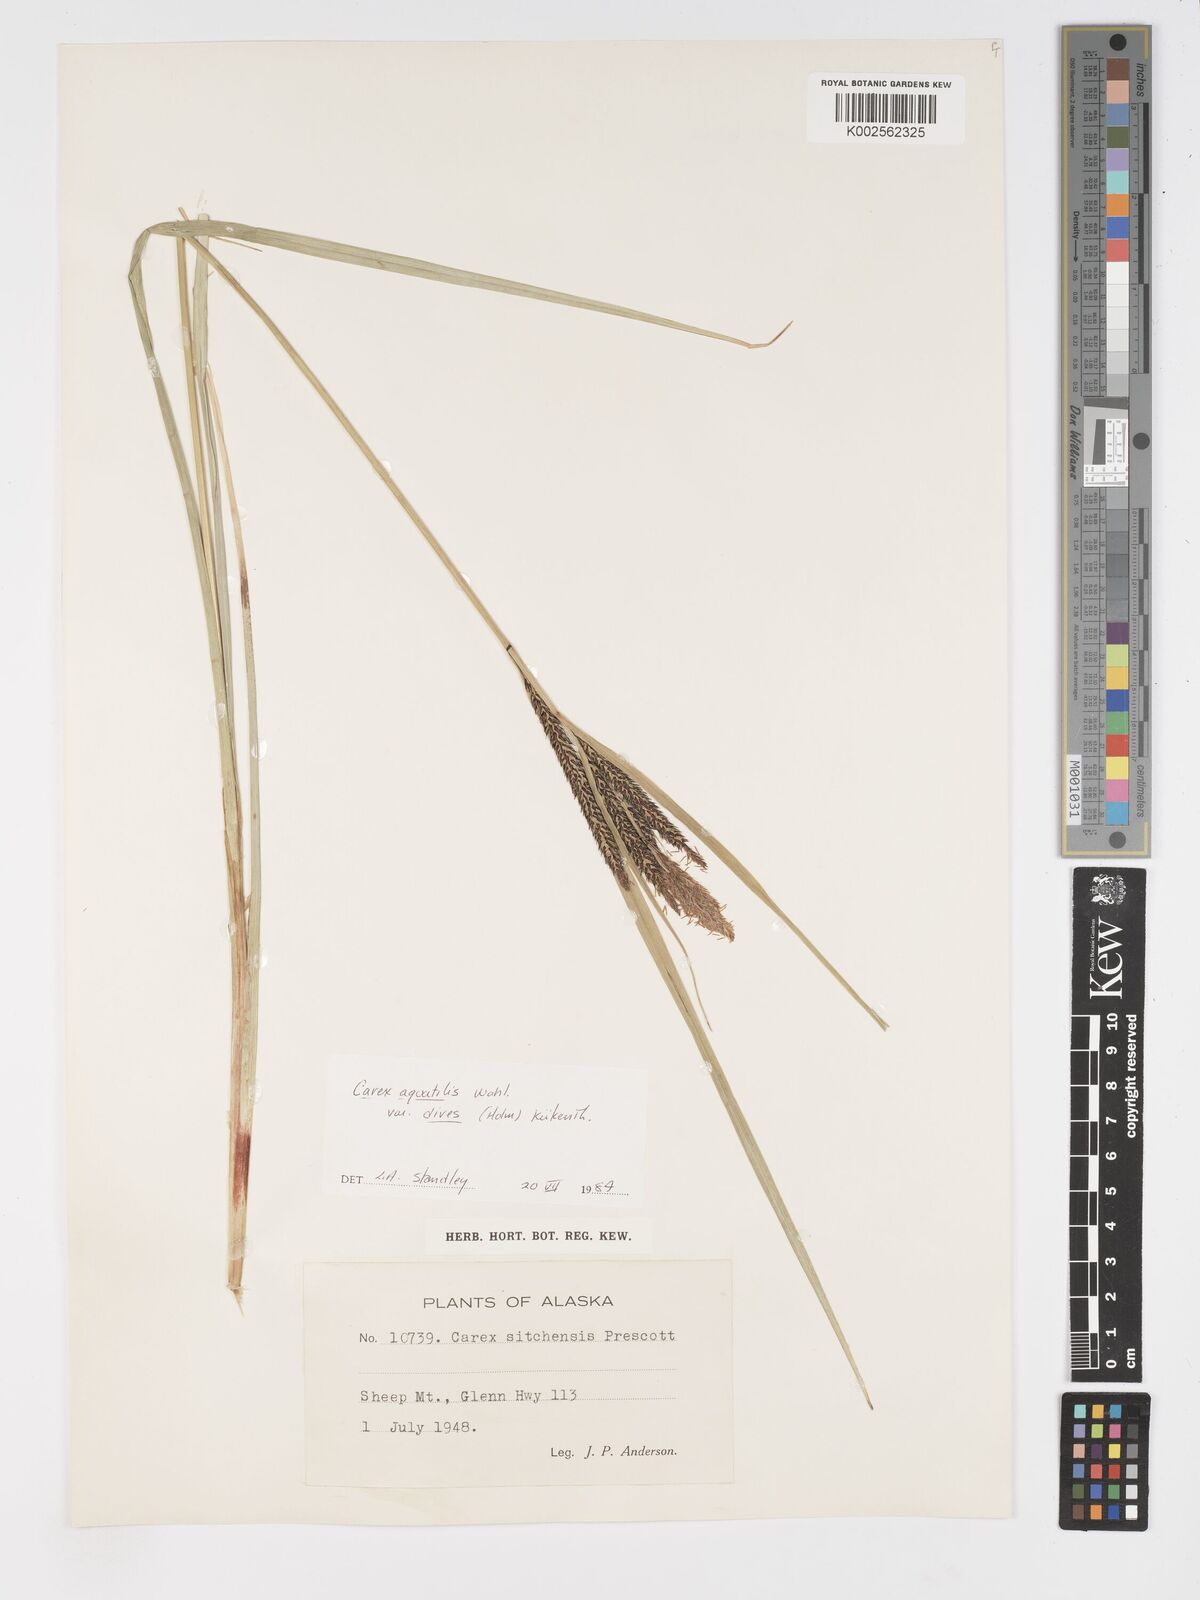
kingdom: Plantae
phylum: Tracheophyta
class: Liliopsida
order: Poales
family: Cyperaceae
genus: Carex
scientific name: Carex aquatilis
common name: Water sedge
